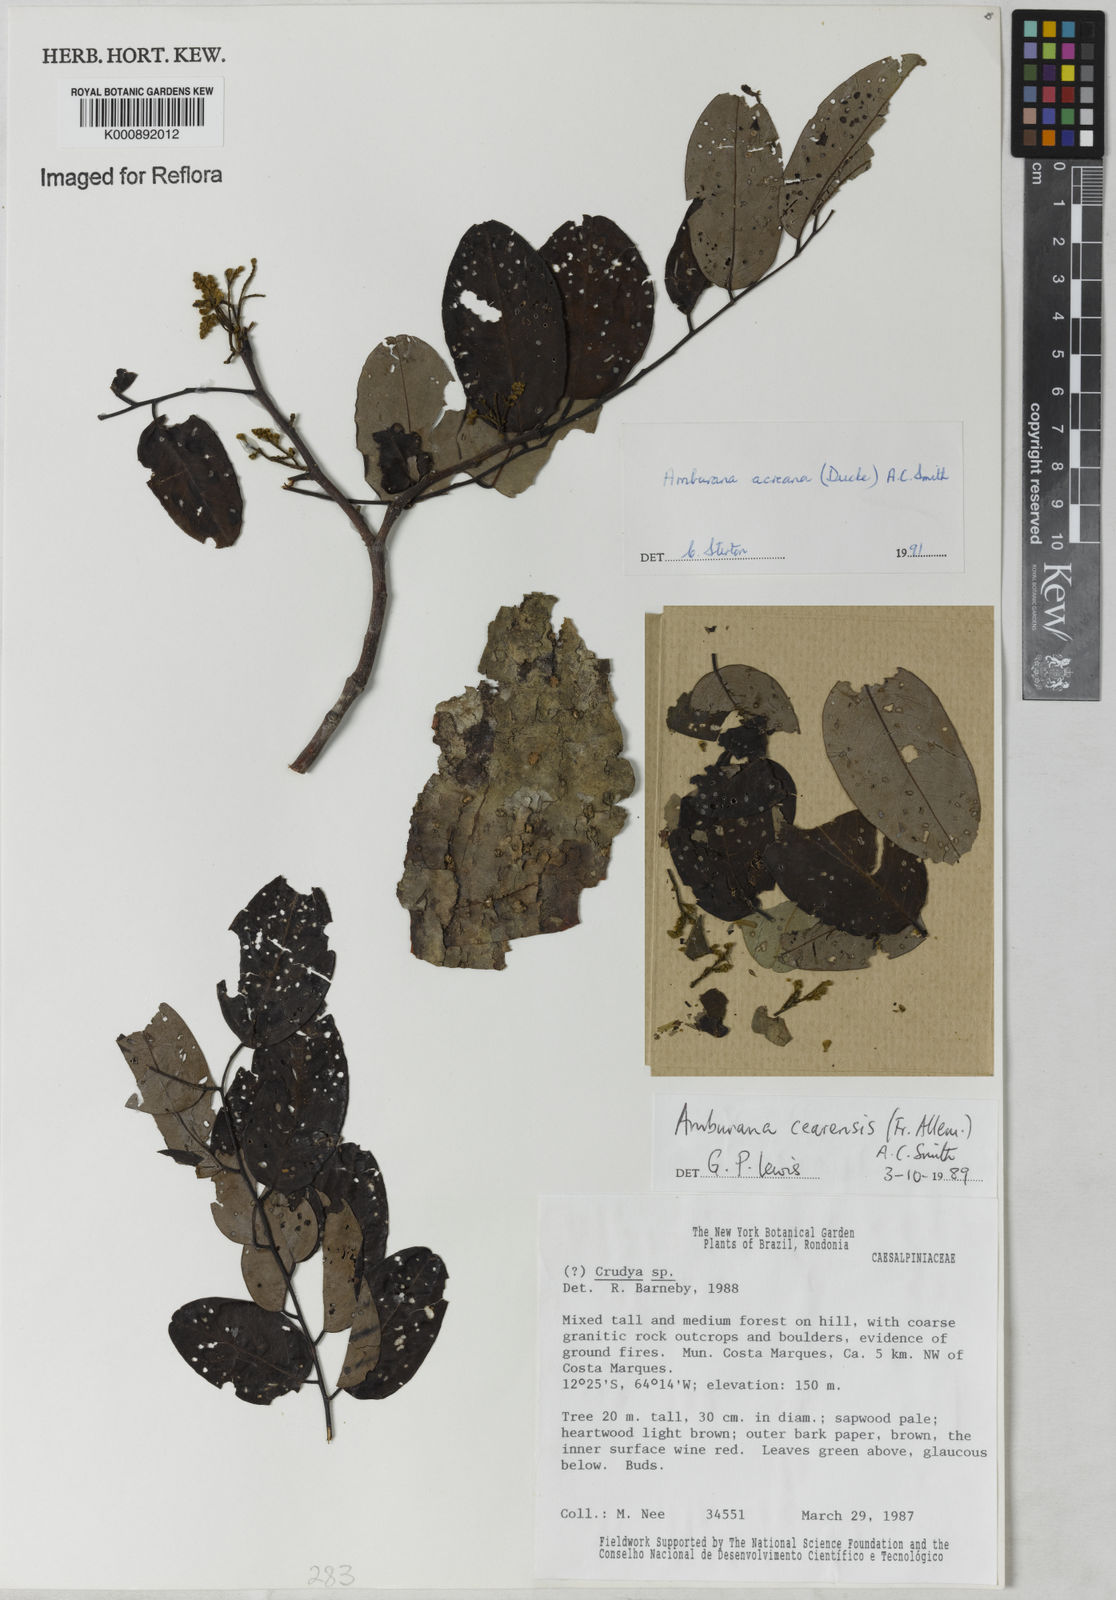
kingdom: Plantae
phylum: Tracheophyta
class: Magnoliopsida
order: Fabales
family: Fabaceae
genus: Amburana
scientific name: Amburana acreana
